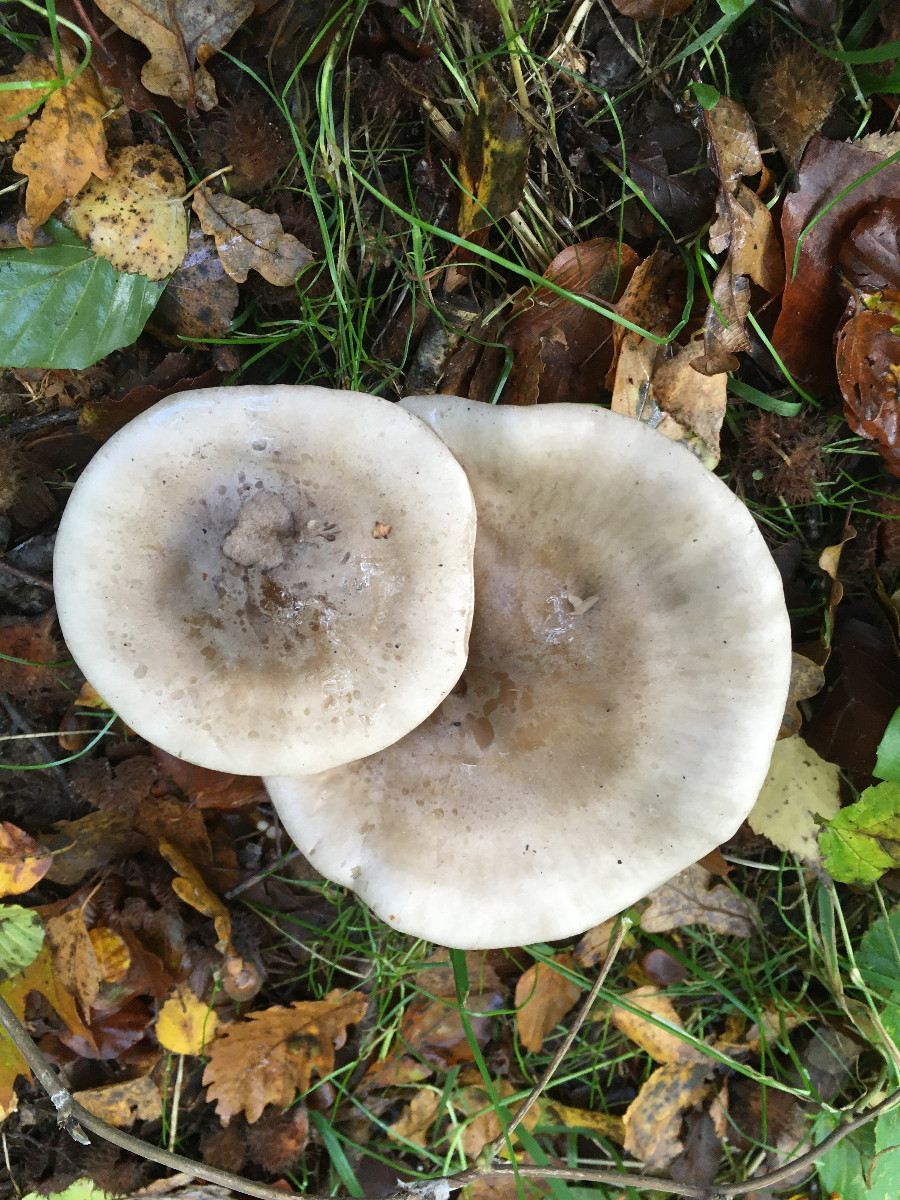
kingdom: Fungi
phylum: Basidiomycota
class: Agaricomycetes
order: Agaricales
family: Tricholomataceae
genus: Clitocybe
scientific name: Clitocybe nebularis
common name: tåge-tragthat
